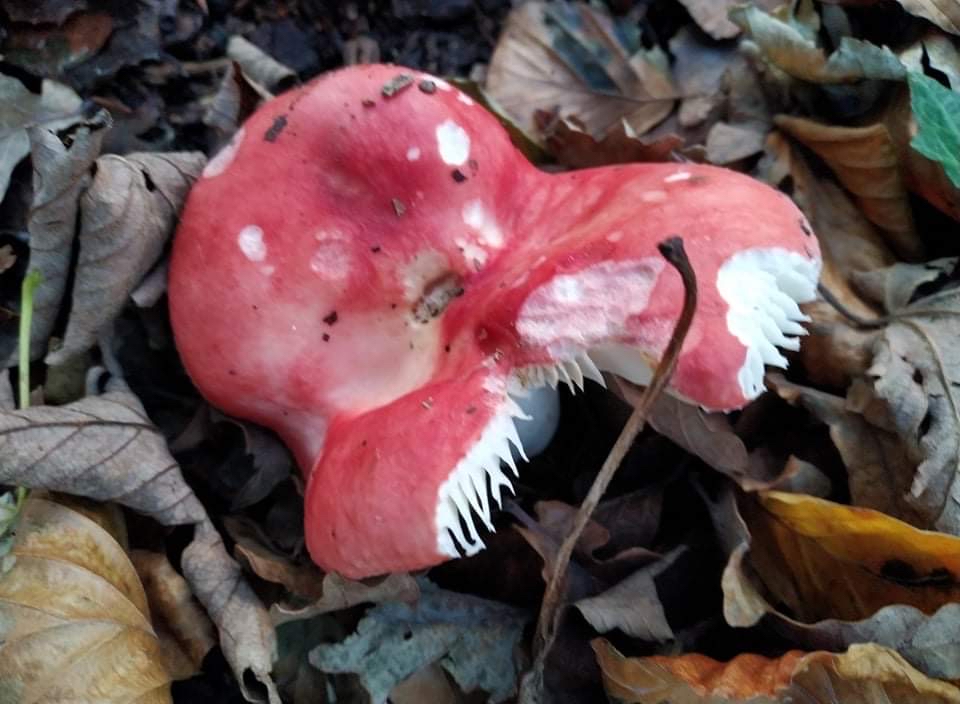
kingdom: Fungi
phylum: Basidiomycota
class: Agaricomycetes
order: Russulales
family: Russulaceae
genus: Russula
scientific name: Russula
